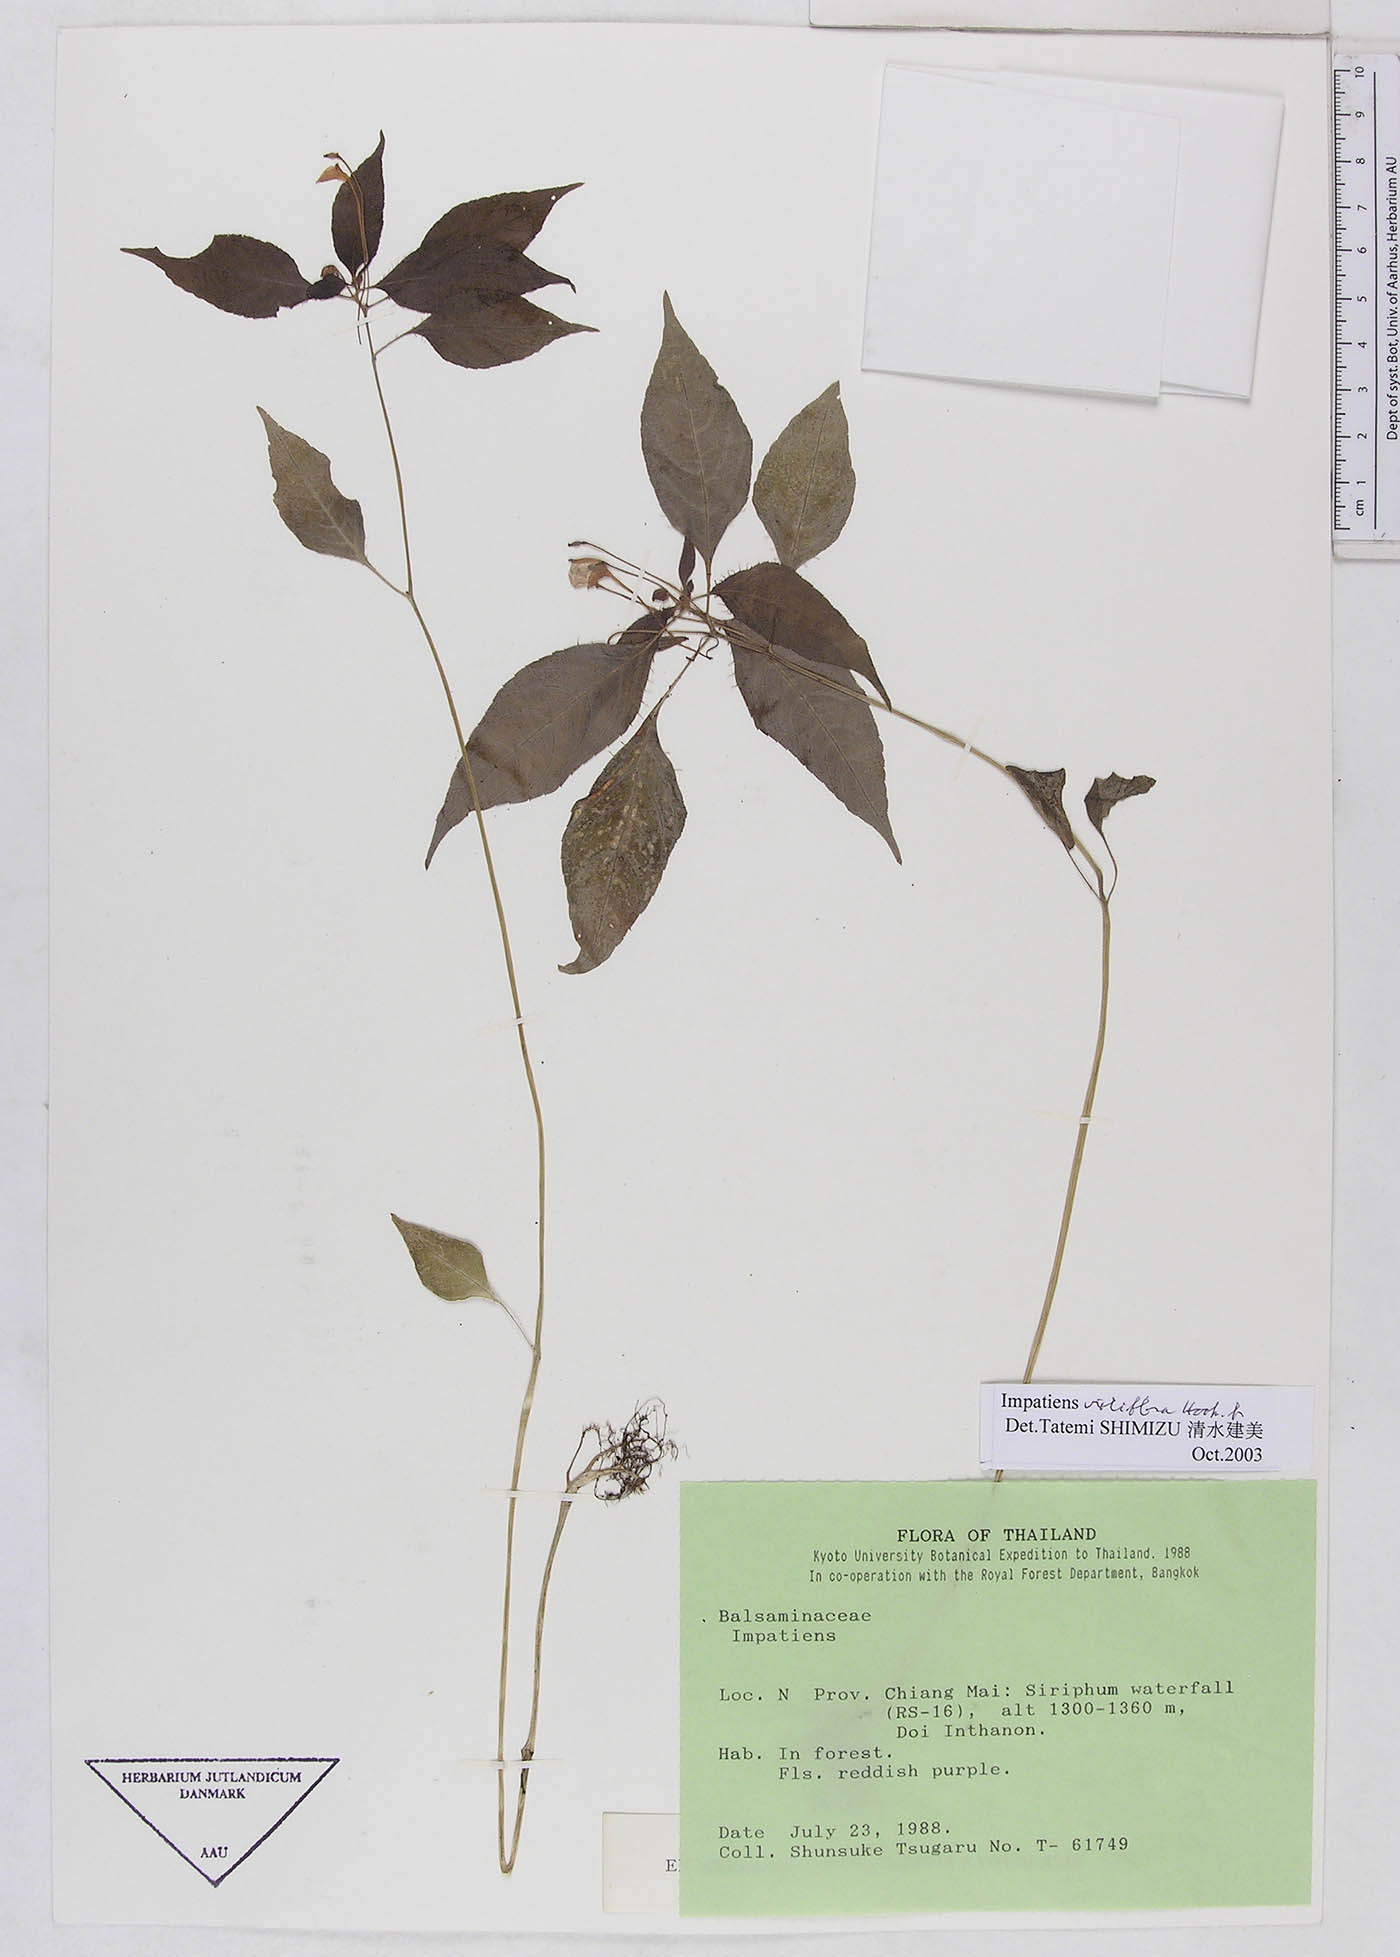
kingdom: Plantae
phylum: Tracheophyta
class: Magnoliopsida
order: Ericales
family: Balsaminaceae
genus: Impatiens
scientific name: Impatiens violiflora
